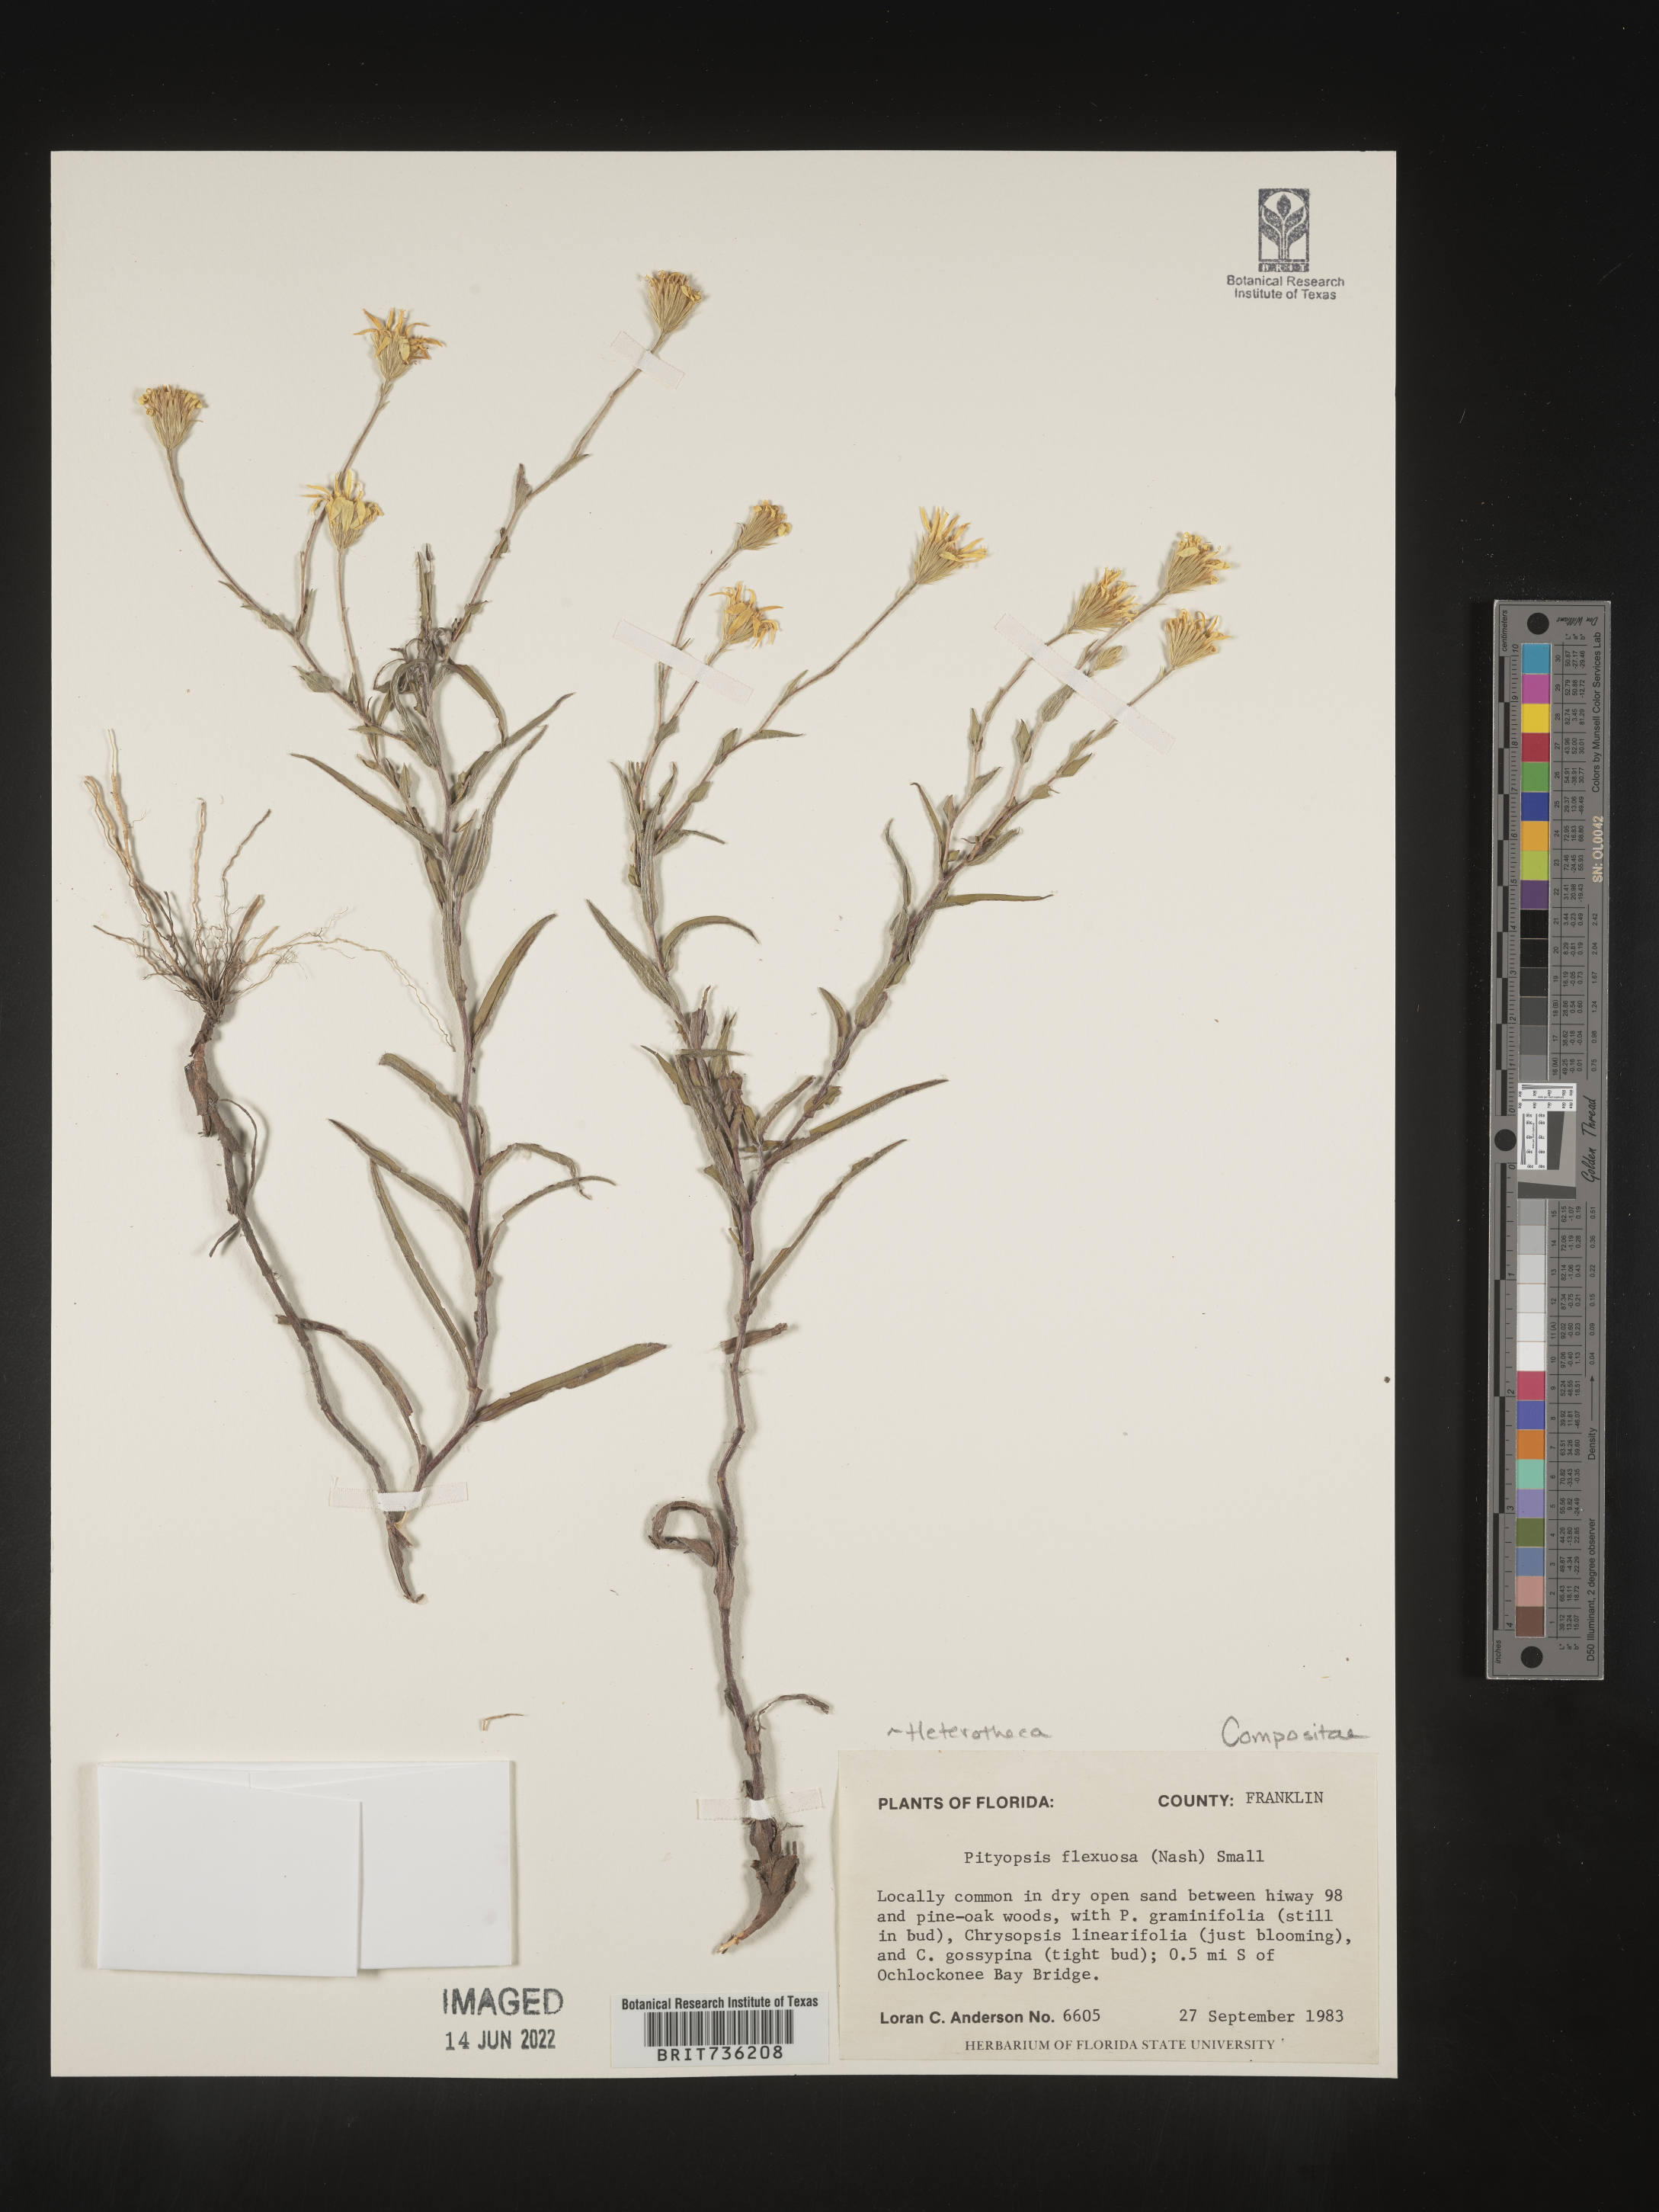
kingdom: Plantae
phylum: Tracheophyta
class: Magnoliopsida
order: Asterales
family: Asteraceae
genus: Pityopsis
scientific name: Pityopsis flexuosa
